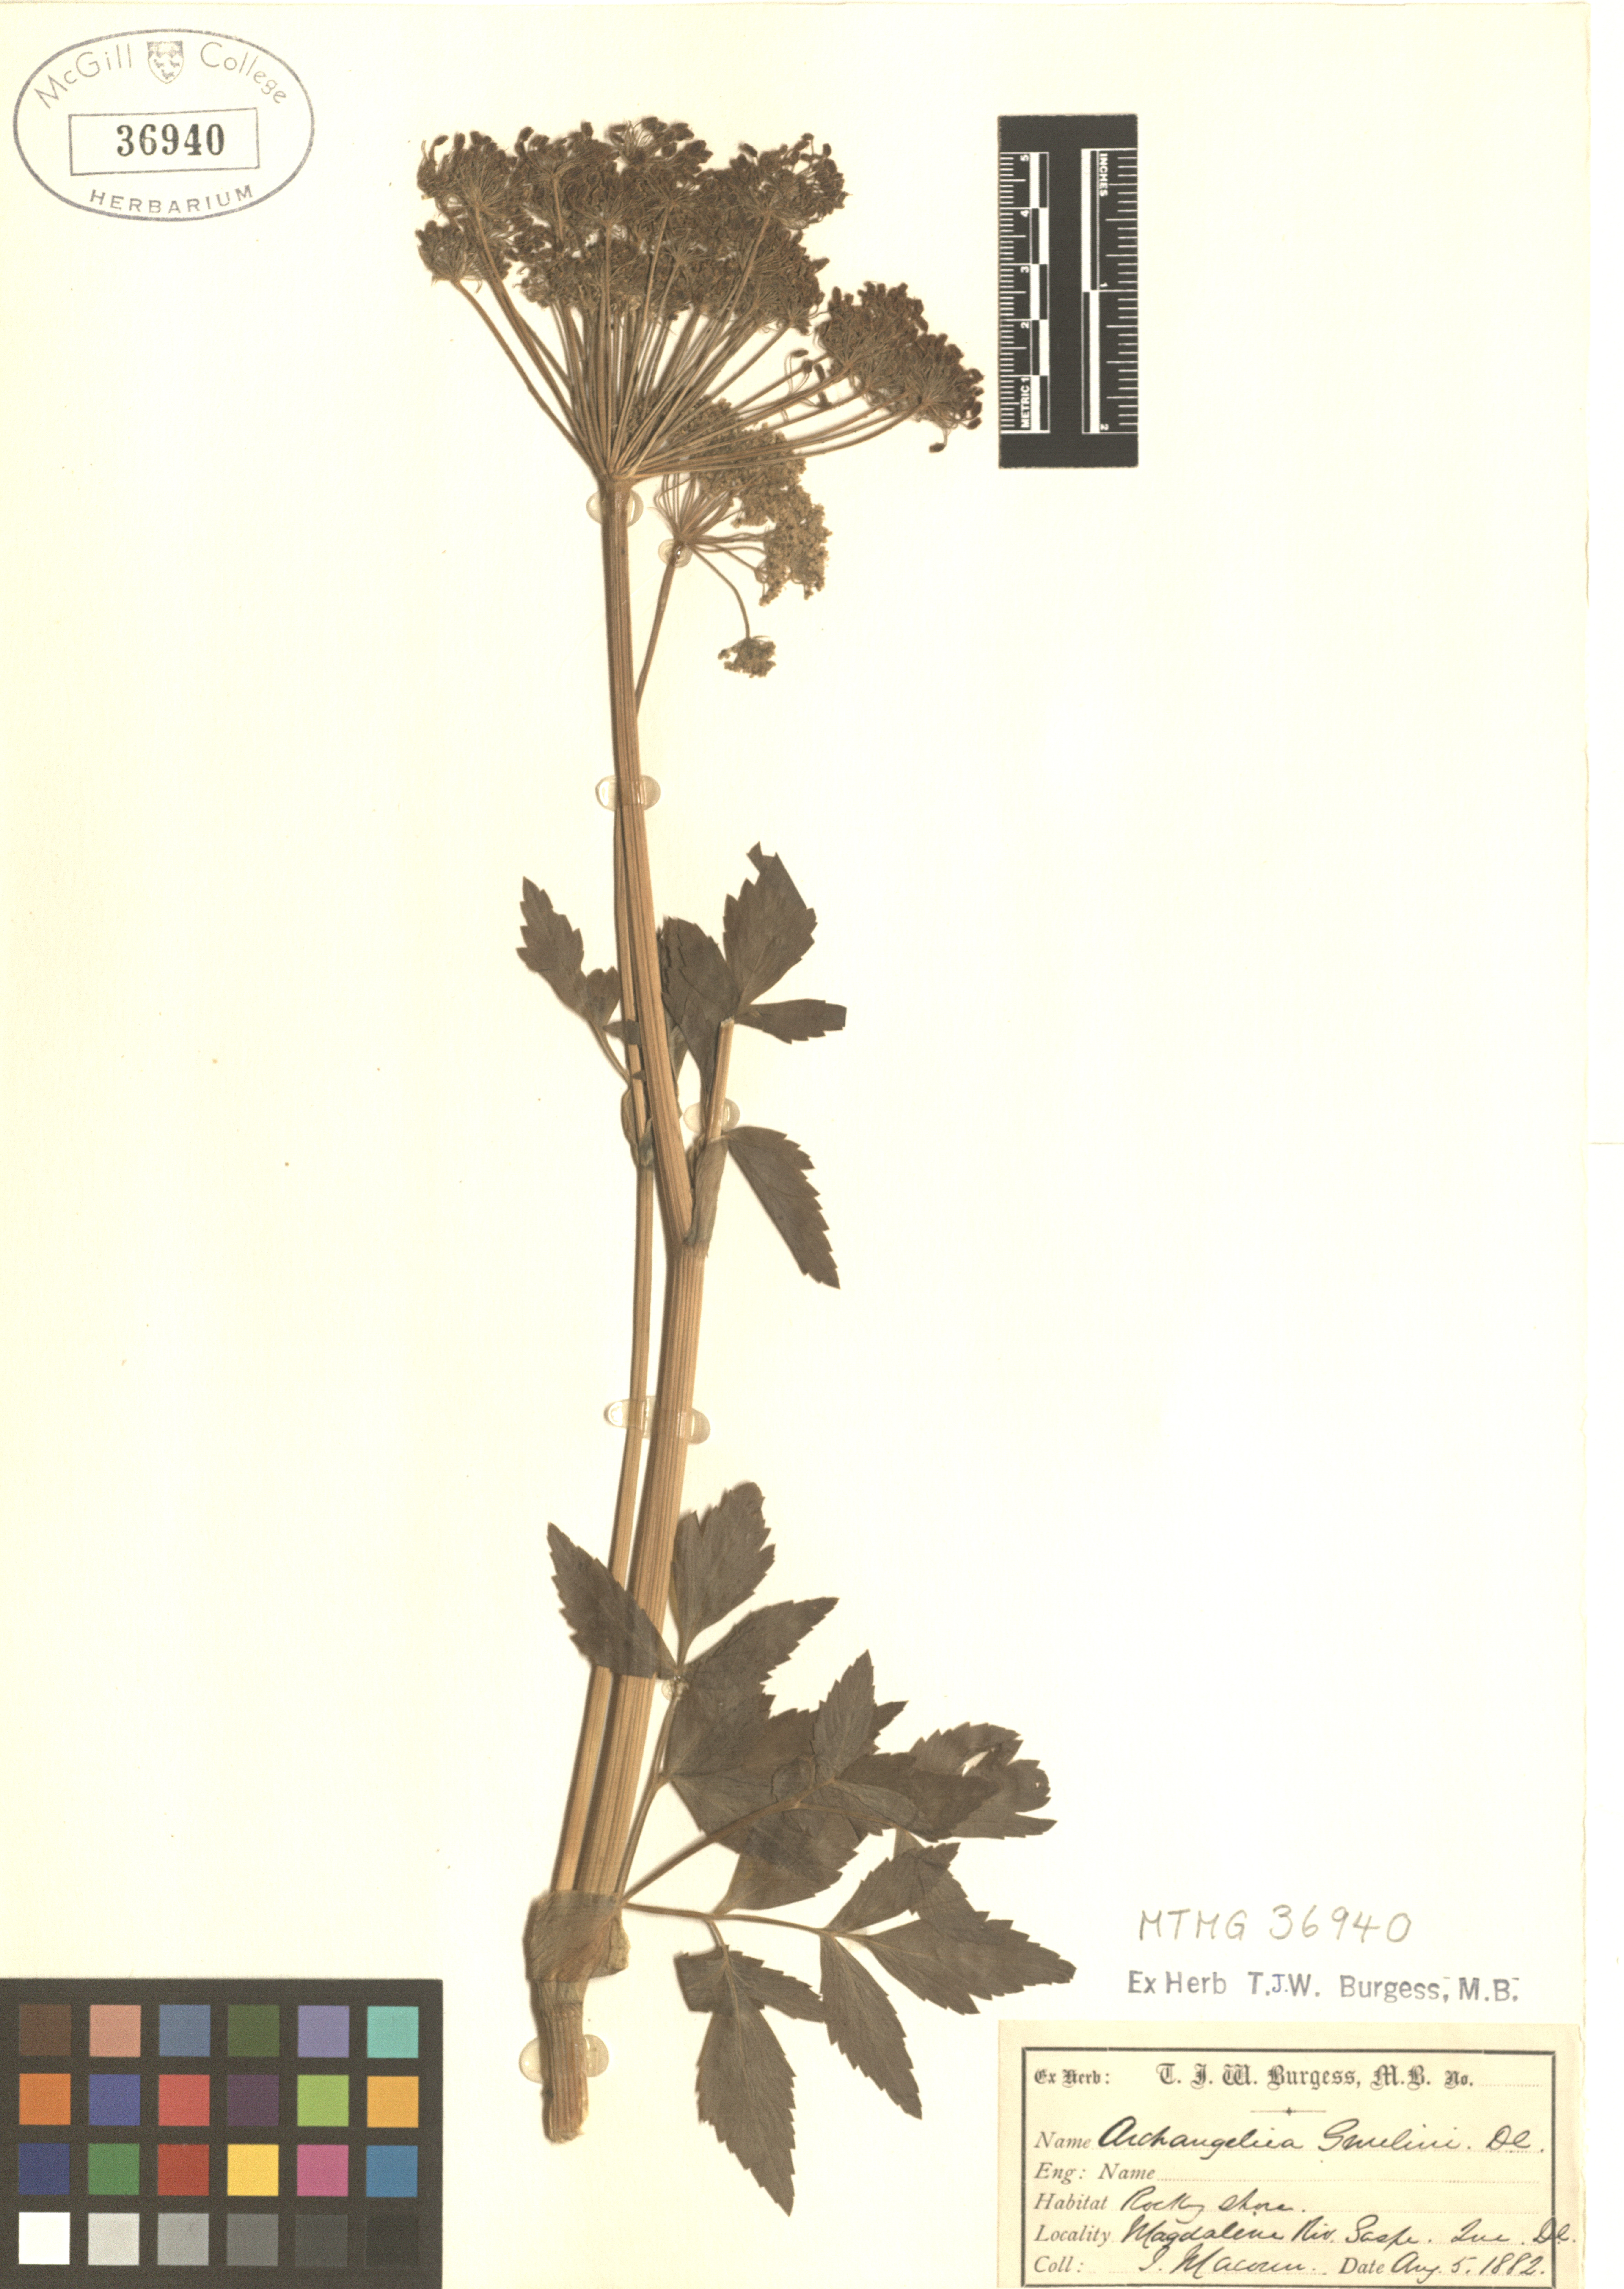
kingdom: Plantae
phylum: Tracheophyta
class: Magnoliopsida
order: Apiales
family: Apiaceae
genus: Angelica
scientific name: Angelica gmelinii
